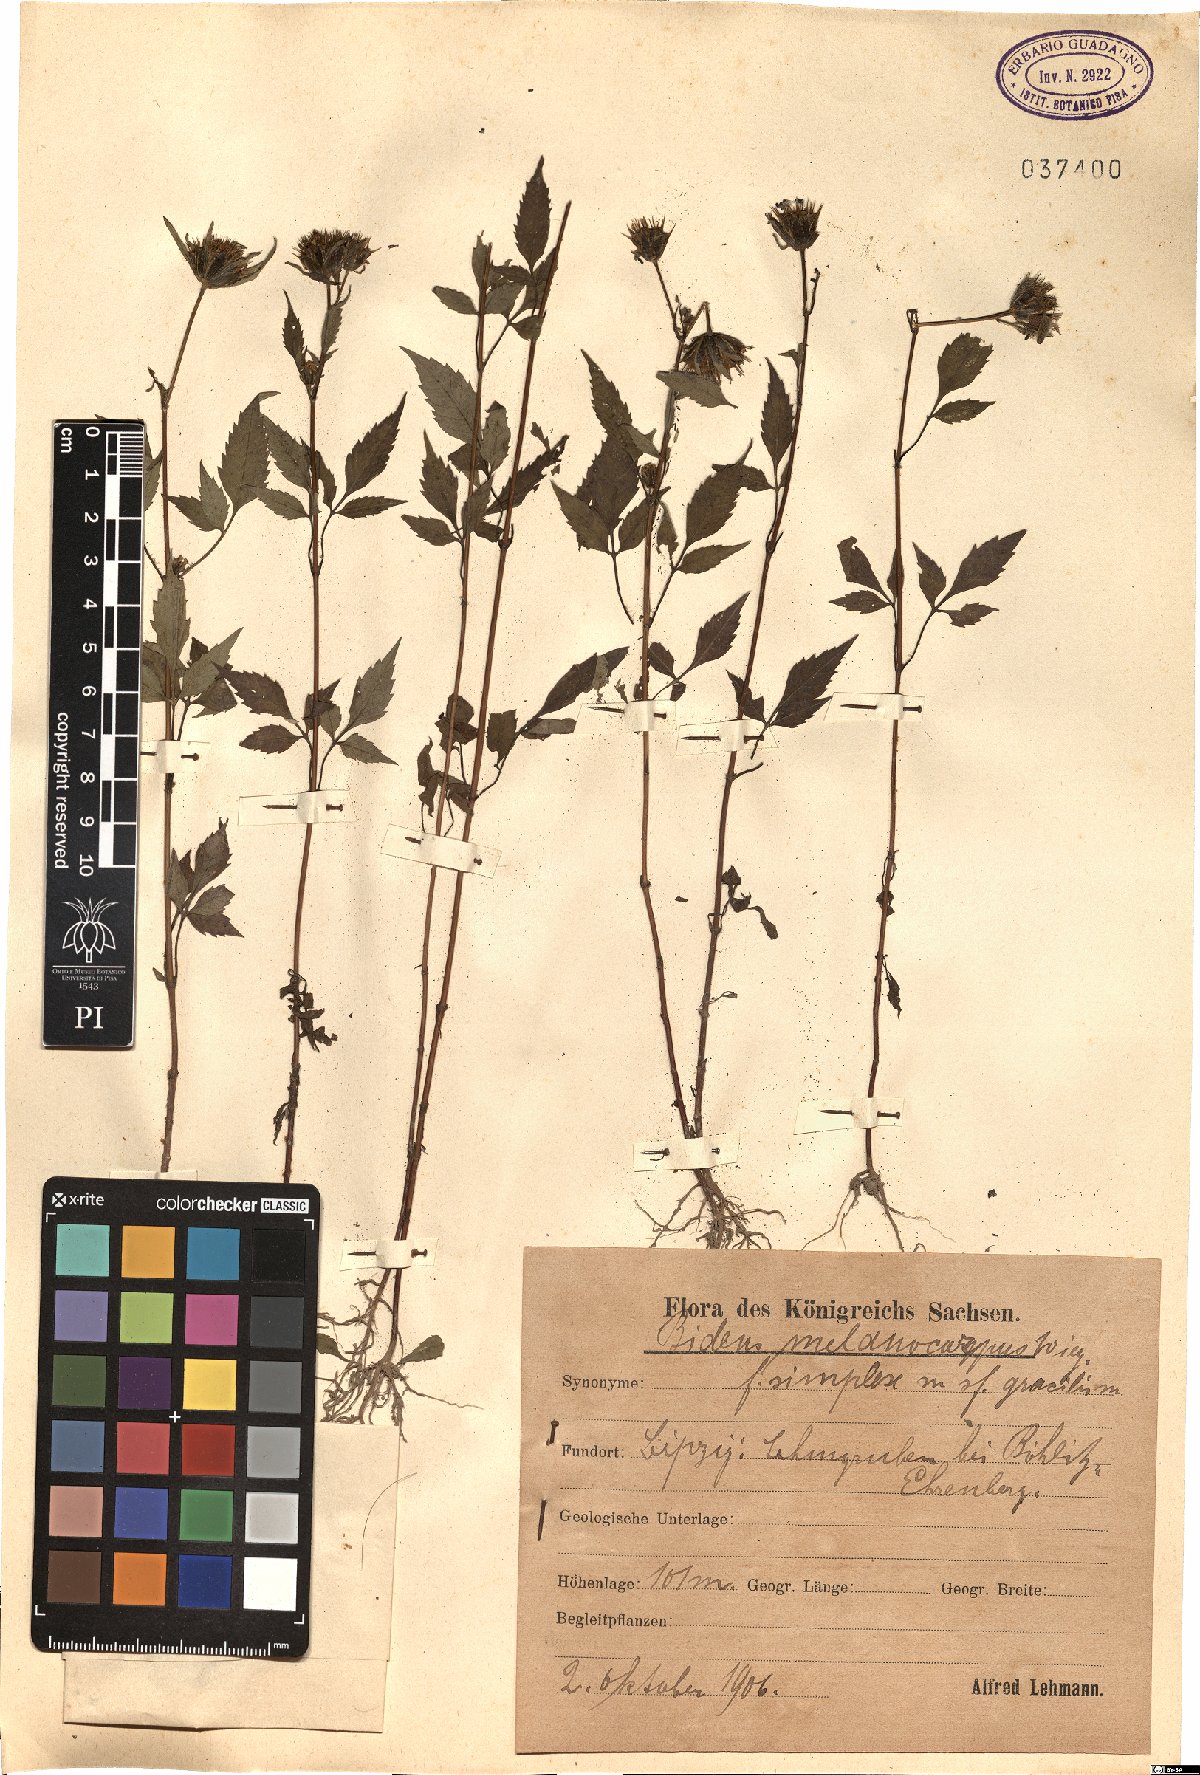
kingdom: Plantae
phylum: Tracheophyta
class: Magnoliopsida
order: Asterales
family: Asteraceae
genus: Bidens
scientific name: Bidens frondosa
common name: Beggarticks
